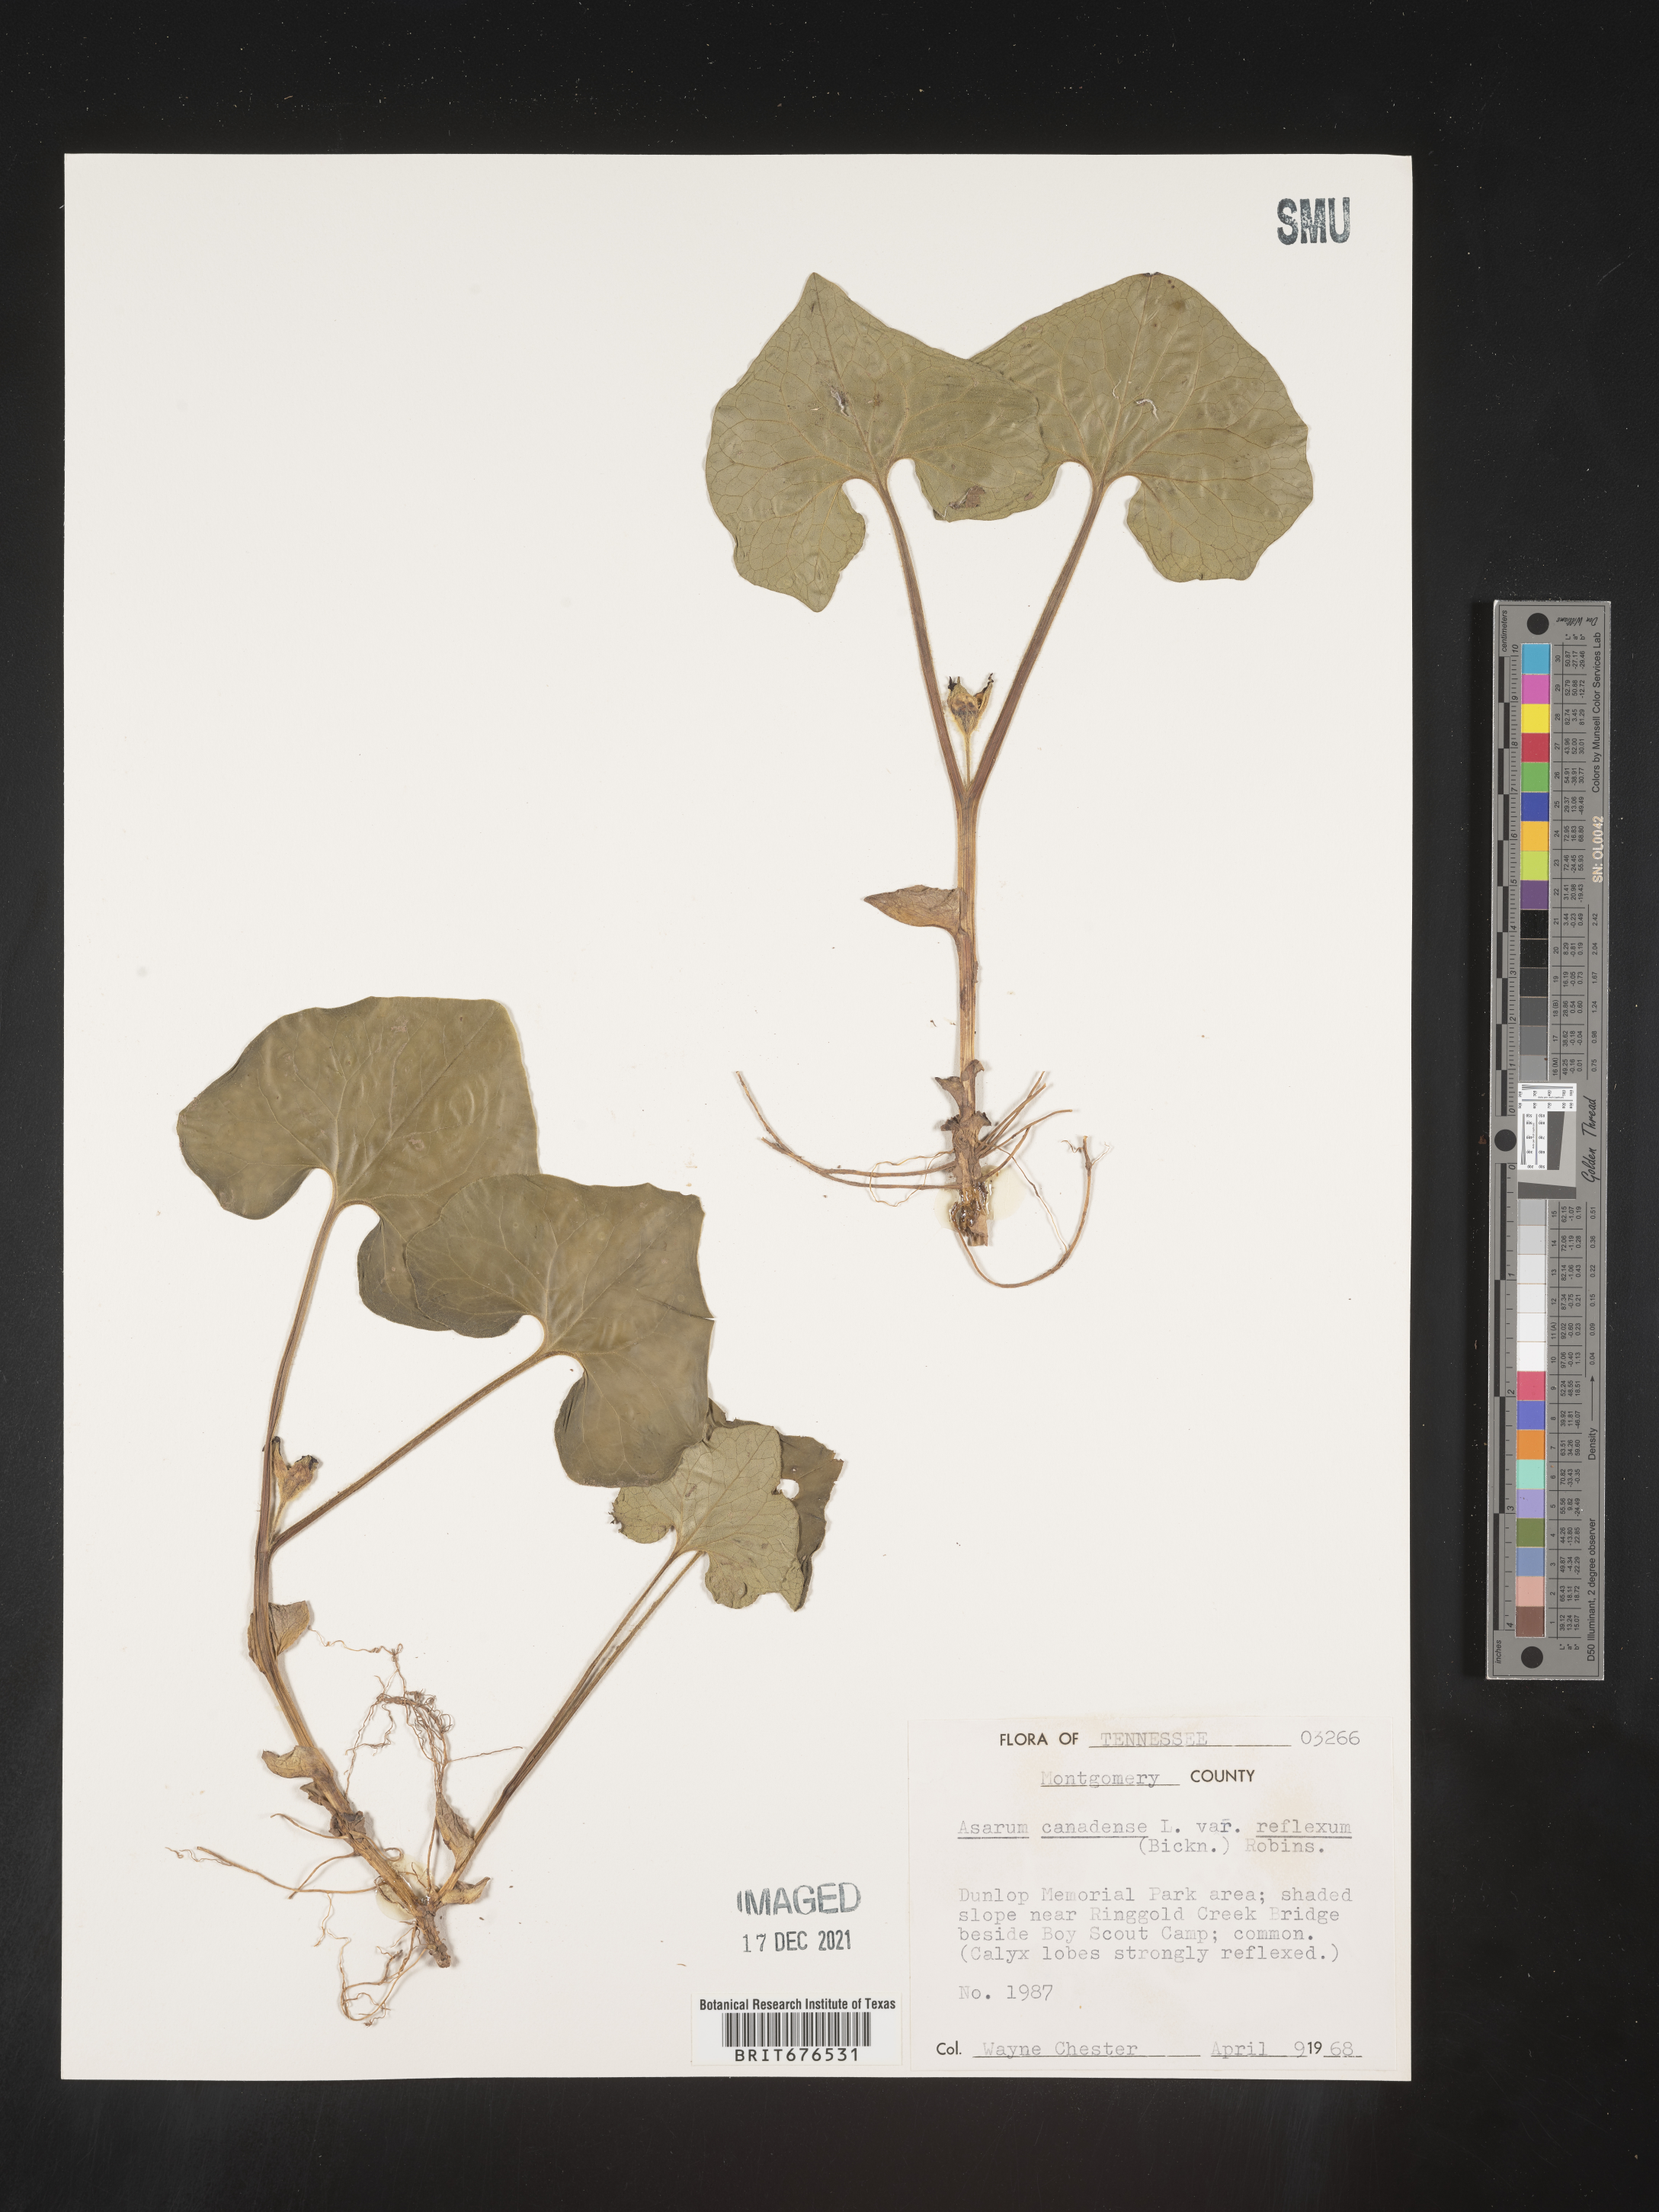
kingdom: Plantae
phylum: Tracheophyta
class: Magnoliopsida
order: Piperales
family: Aristolochiaceae
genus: Asarum
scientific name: Asarum canadense
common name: Wild ginger
